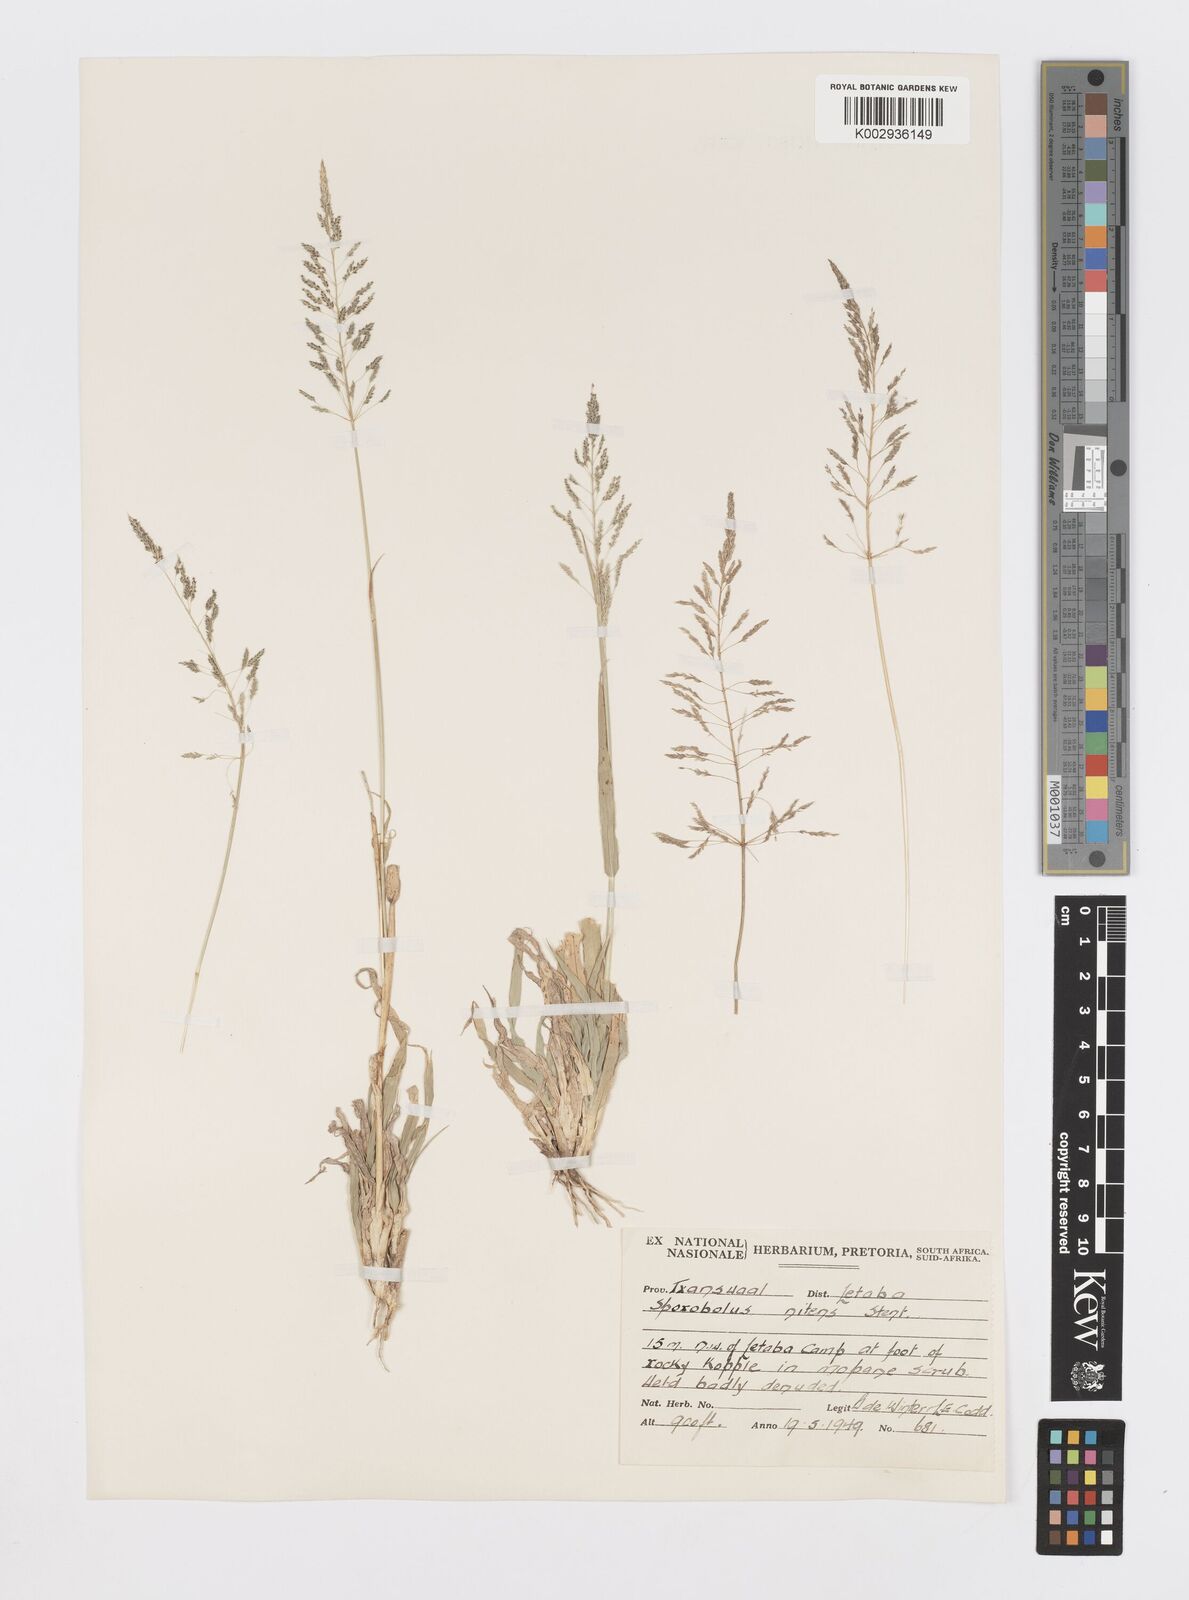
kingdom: Plantae
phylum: Tracheophyta
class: Liliopsida
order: Poales
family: Poaceae
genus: Sporobolus
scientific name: Sporobolus nitens
